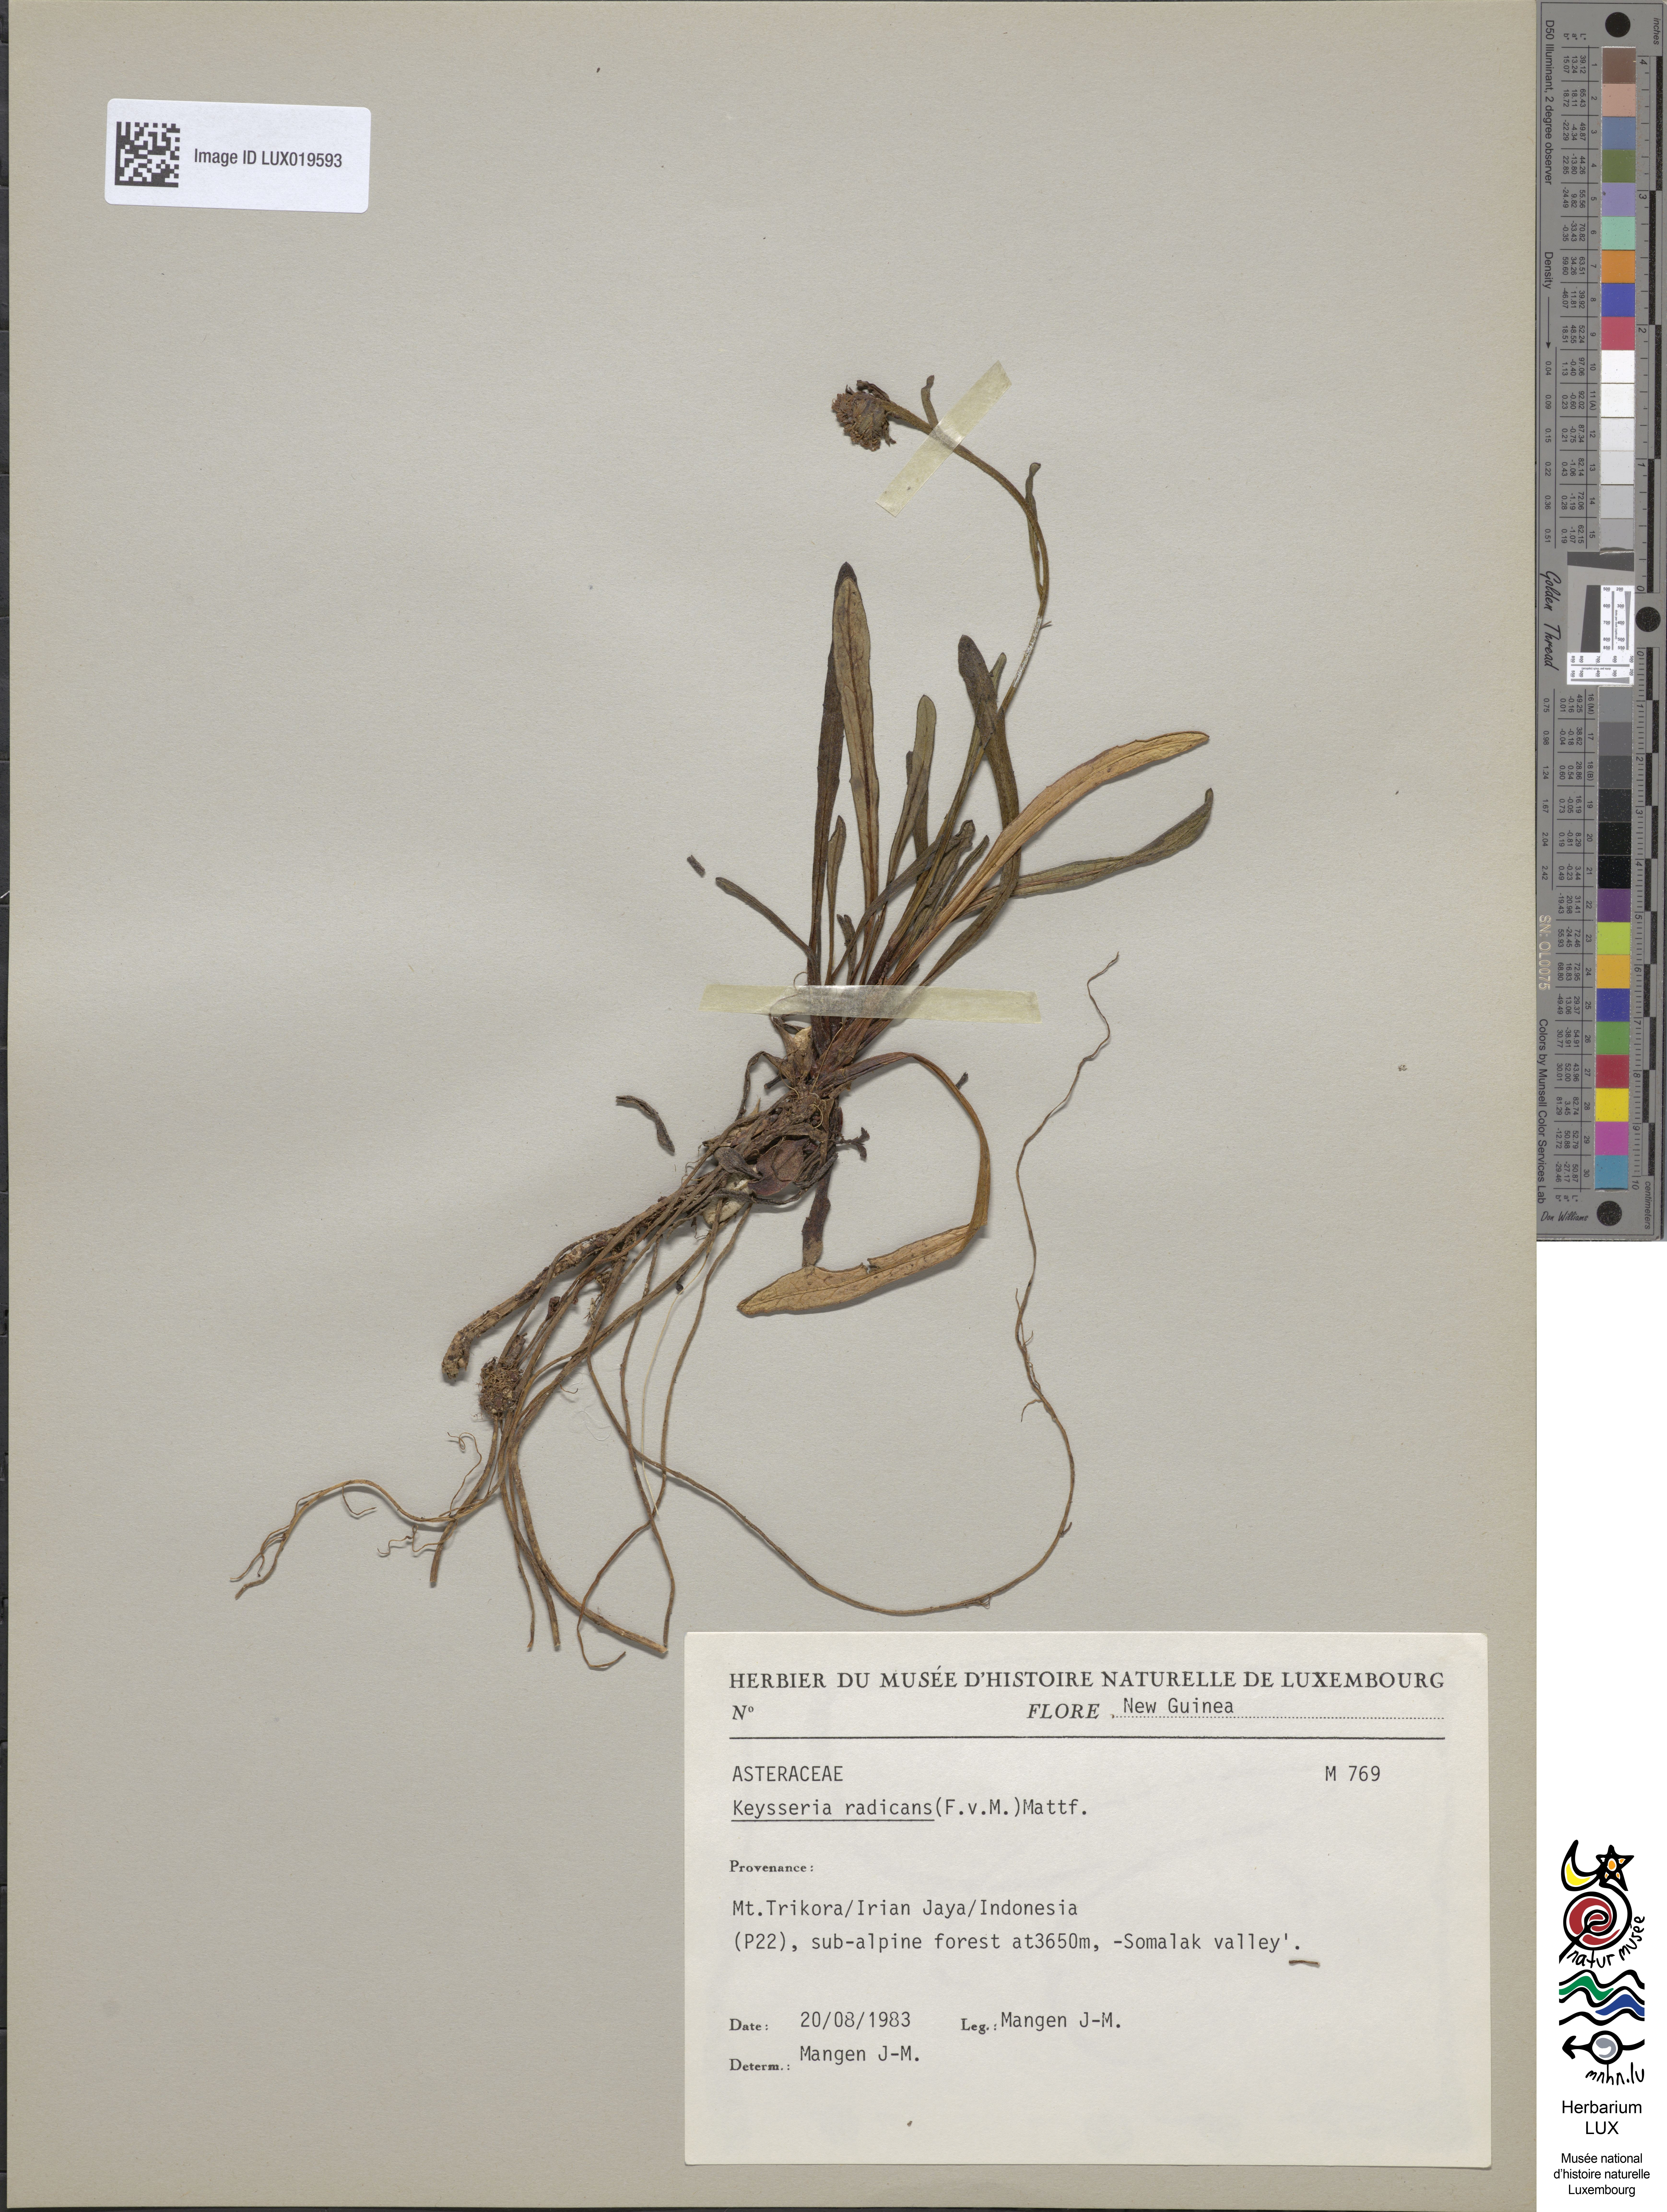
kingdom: Plantae
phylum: Tracheophyta
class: Magnoliopsida
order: Asterales
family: Asteraceae
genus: Keysseria
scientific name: Keysseria radicans
